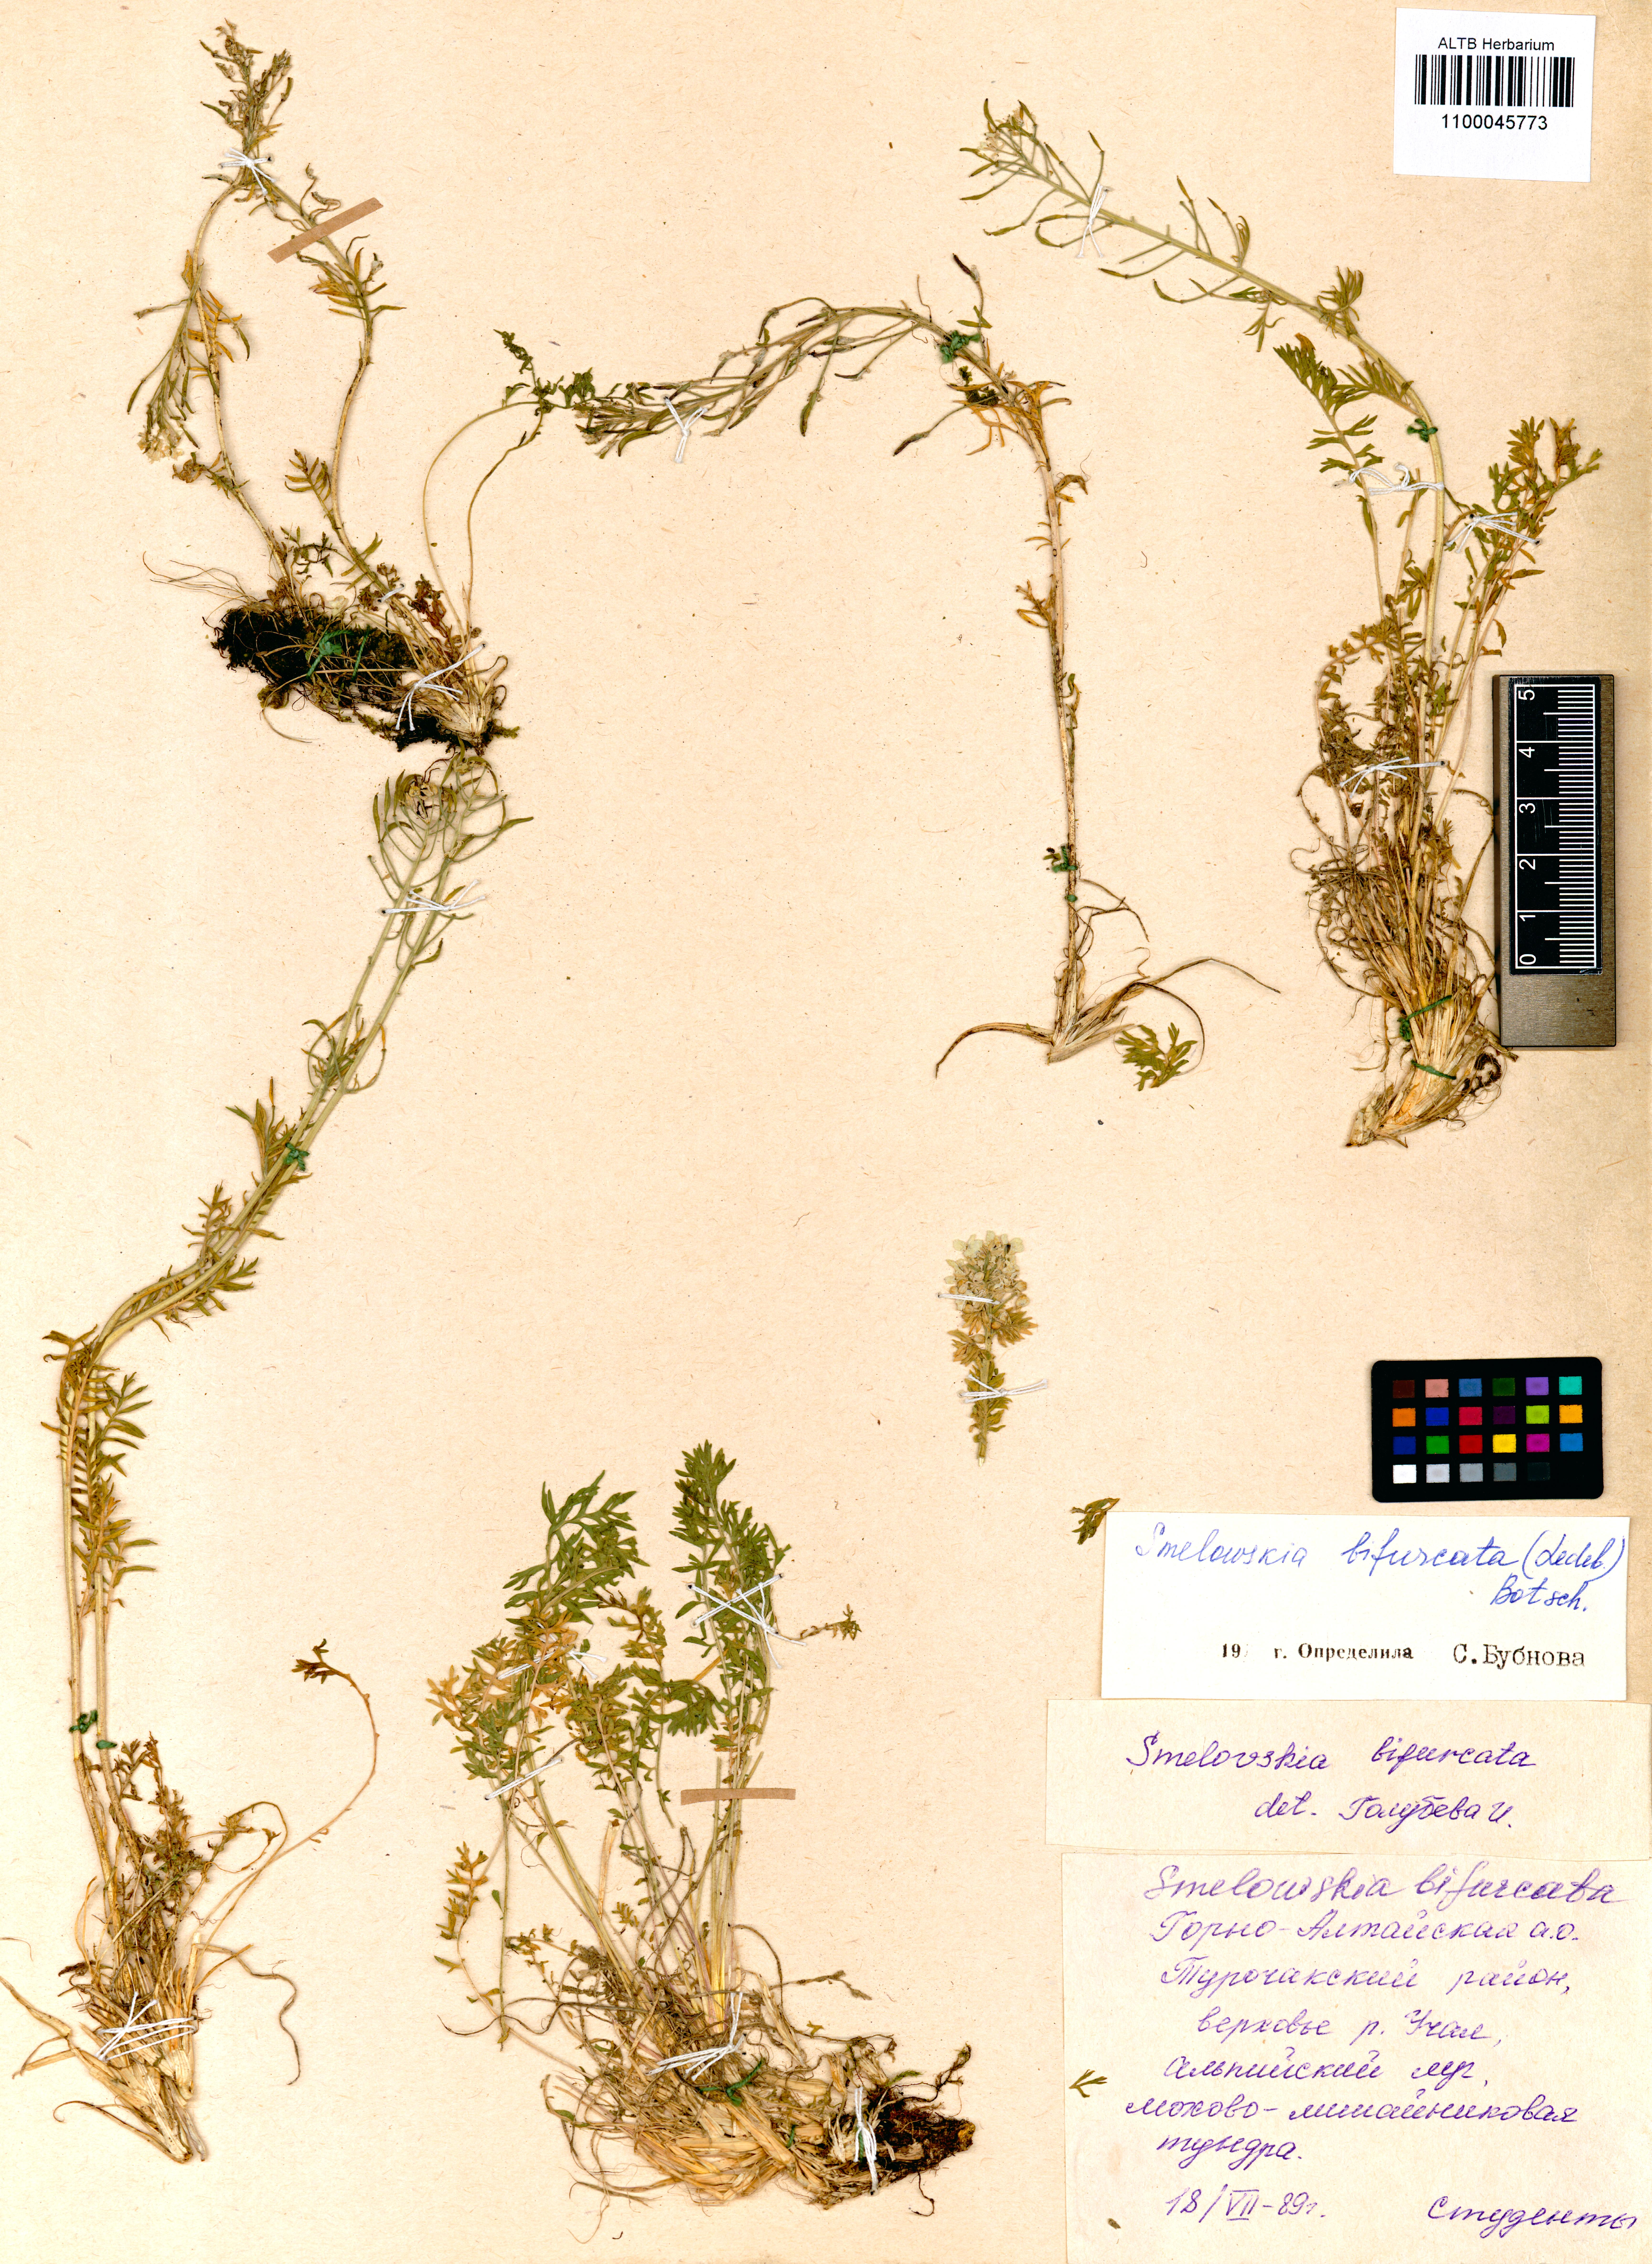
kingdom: Plantae
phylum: Tracheophyta
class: Magnoliopsida
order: Brassicales
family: Brassicaceae
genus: Smelowskia
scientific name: Smelowskia bifurcata
